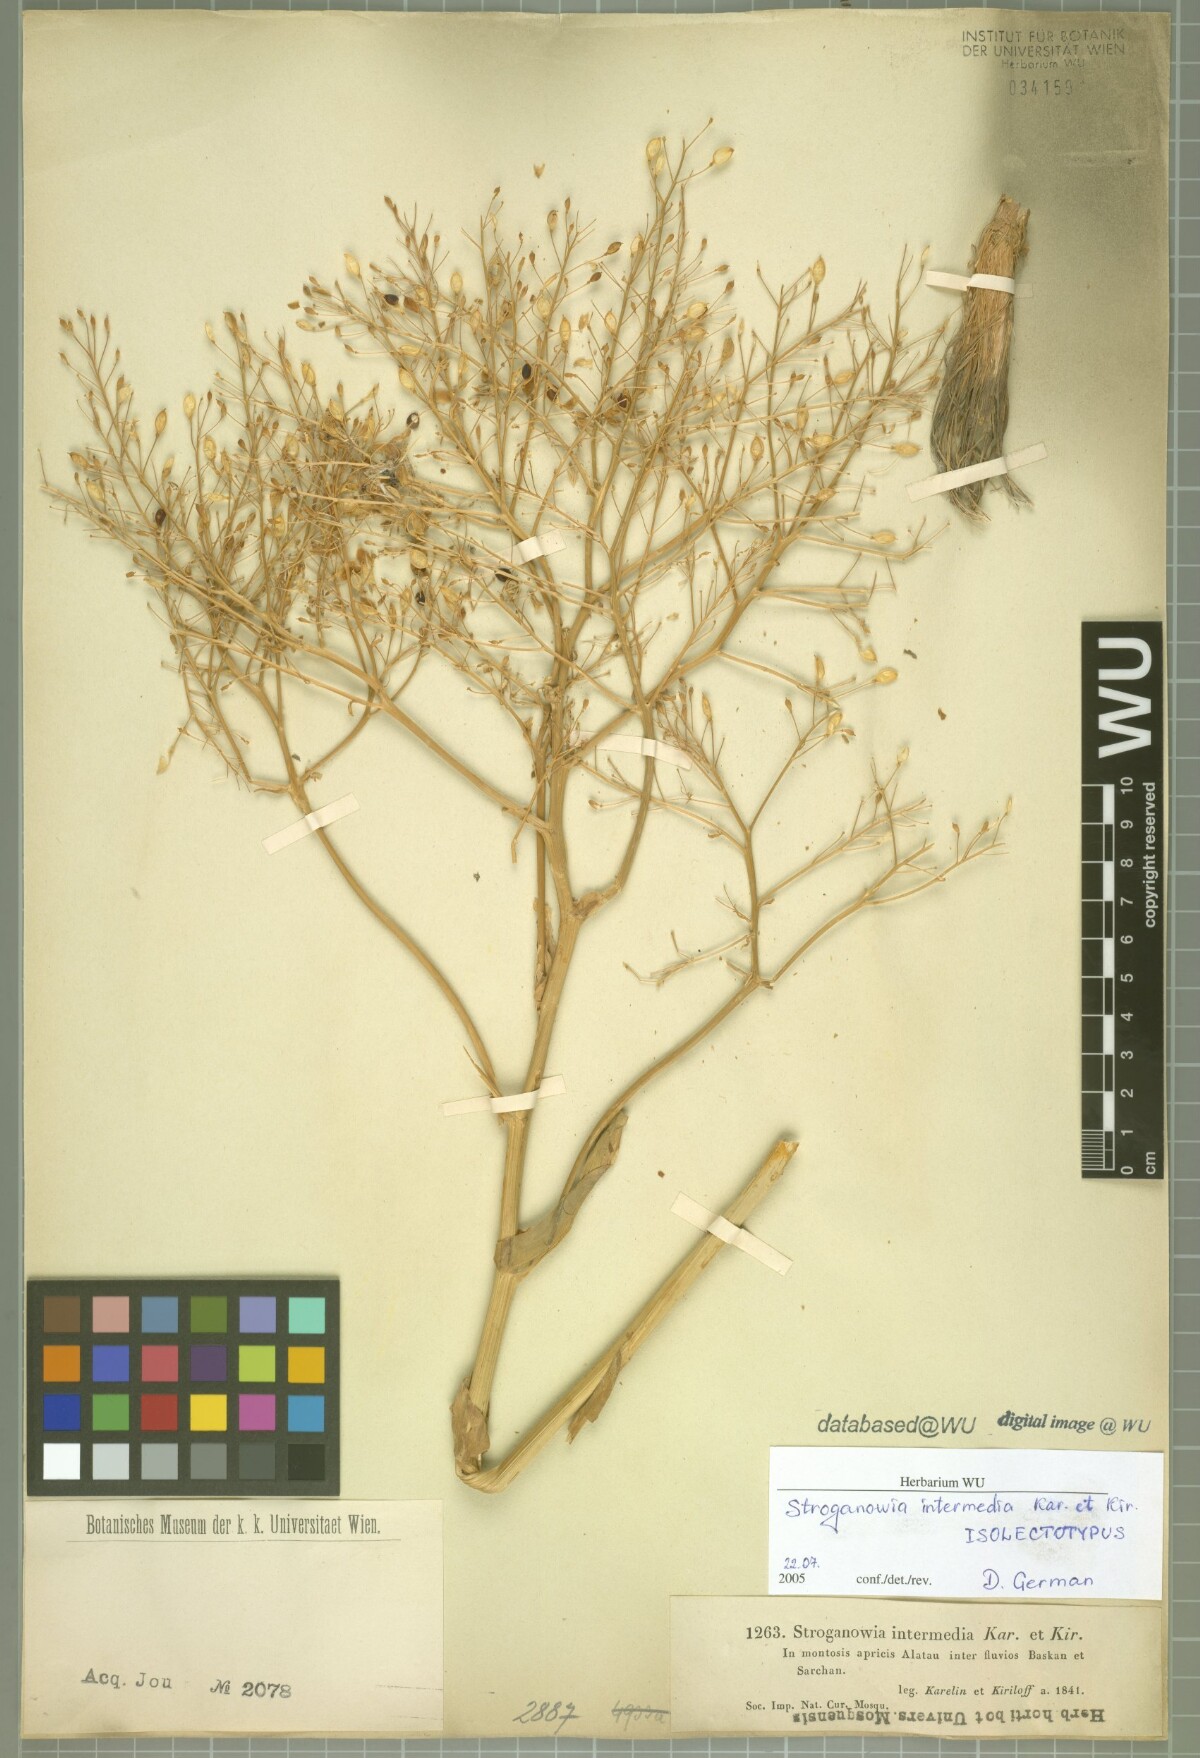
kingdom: Plantae
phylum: Tracheophyta
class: Magnoliopsida
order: Brassicales
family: Brassicaceae
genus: Lepidium
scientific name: Lepidium karelinianum
